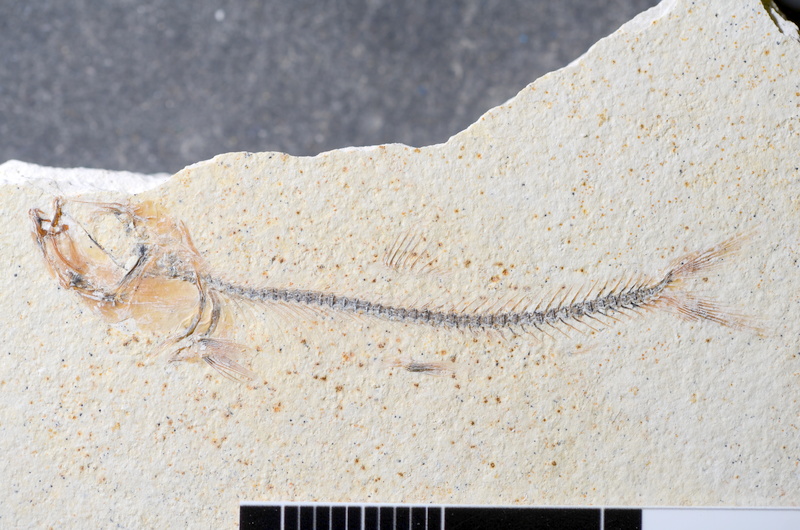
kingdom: Animalia
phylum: Chordata
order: Salmoniformes
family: Orthogonikleithridae
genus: Orthogonikleithrus
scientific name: Orthogonikleithrus hoelli
